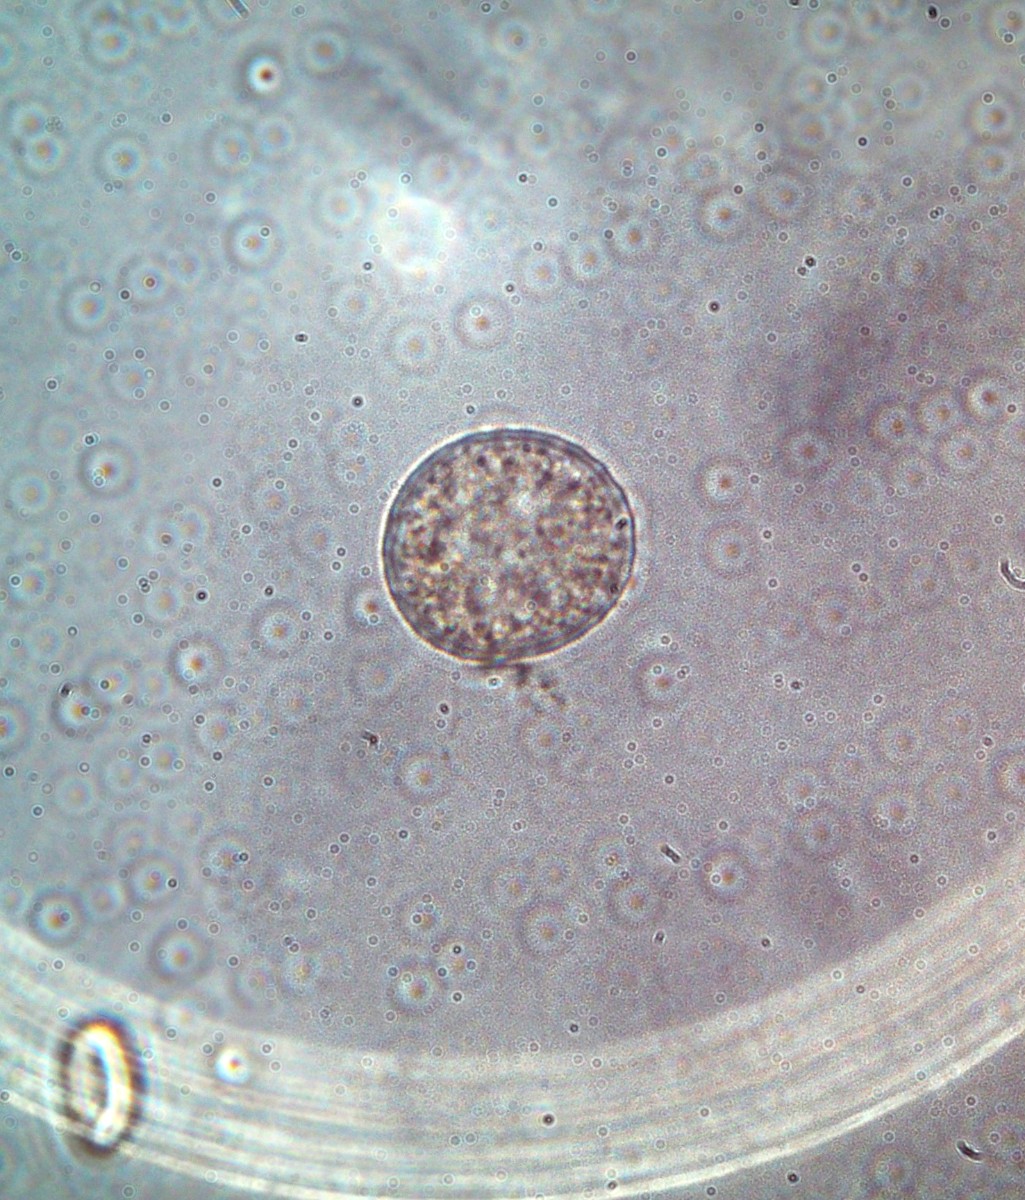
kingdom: Fungi
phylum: Basidiomycota
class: Pucciniomycetes
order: Pucciniales
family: Melampsoraceae
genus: Melampsora
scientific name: Melampsora epitea
